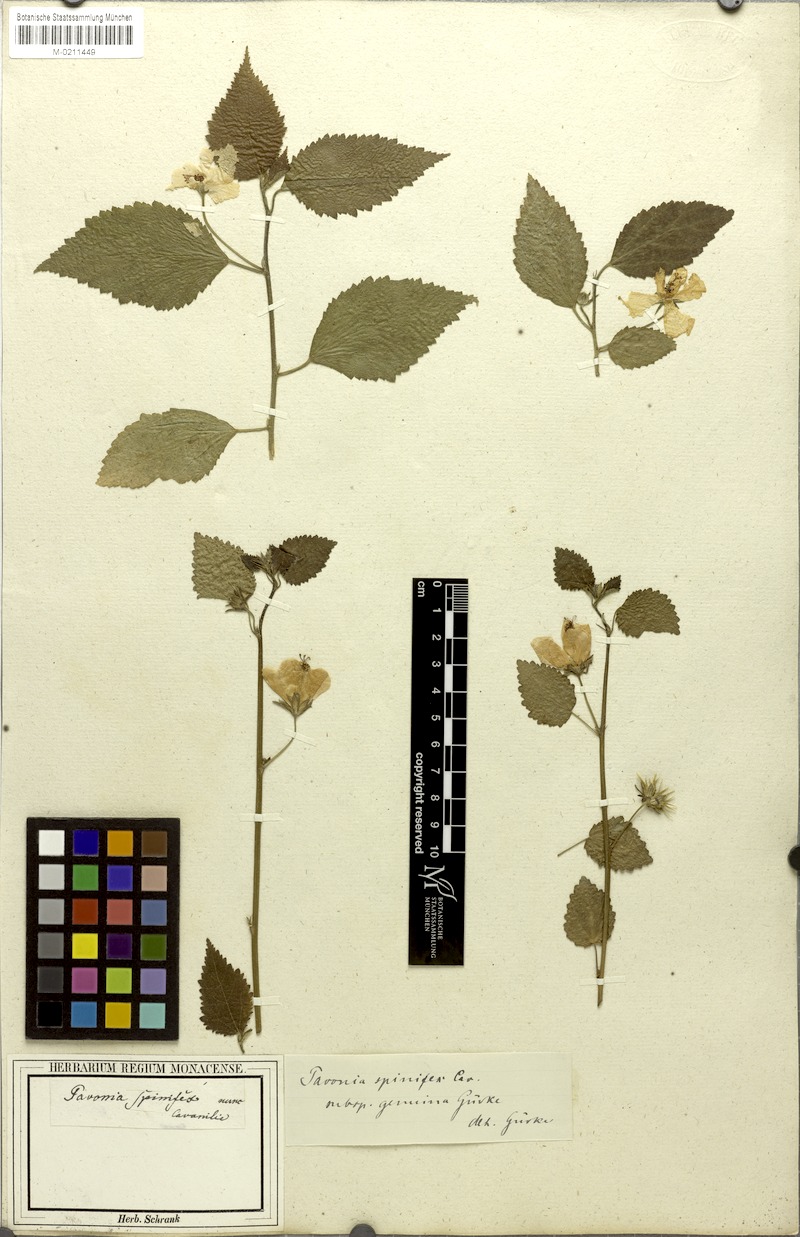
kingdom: Plantae
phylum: Tracheophyta
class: Magnoliopsida
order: Malvales
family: Malvaceae
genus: Pavonia
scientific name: Pavonia spinifex
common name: Ginger bush
